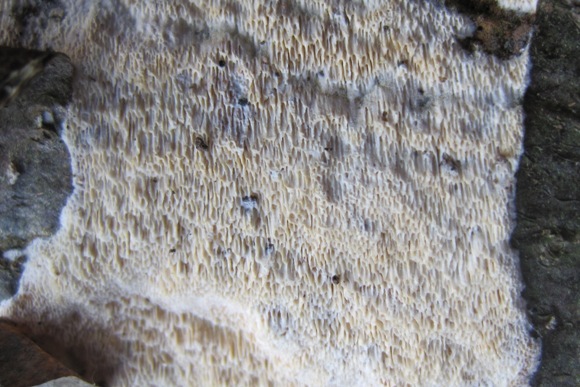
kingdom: Fungi
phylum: Basidiomycota
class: Agaricomycetes
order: Hymenochaetales
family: Schizoporaceae
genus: Xylodon
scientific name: Xylodon subtropicus
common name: labyrint-tandsvamp
